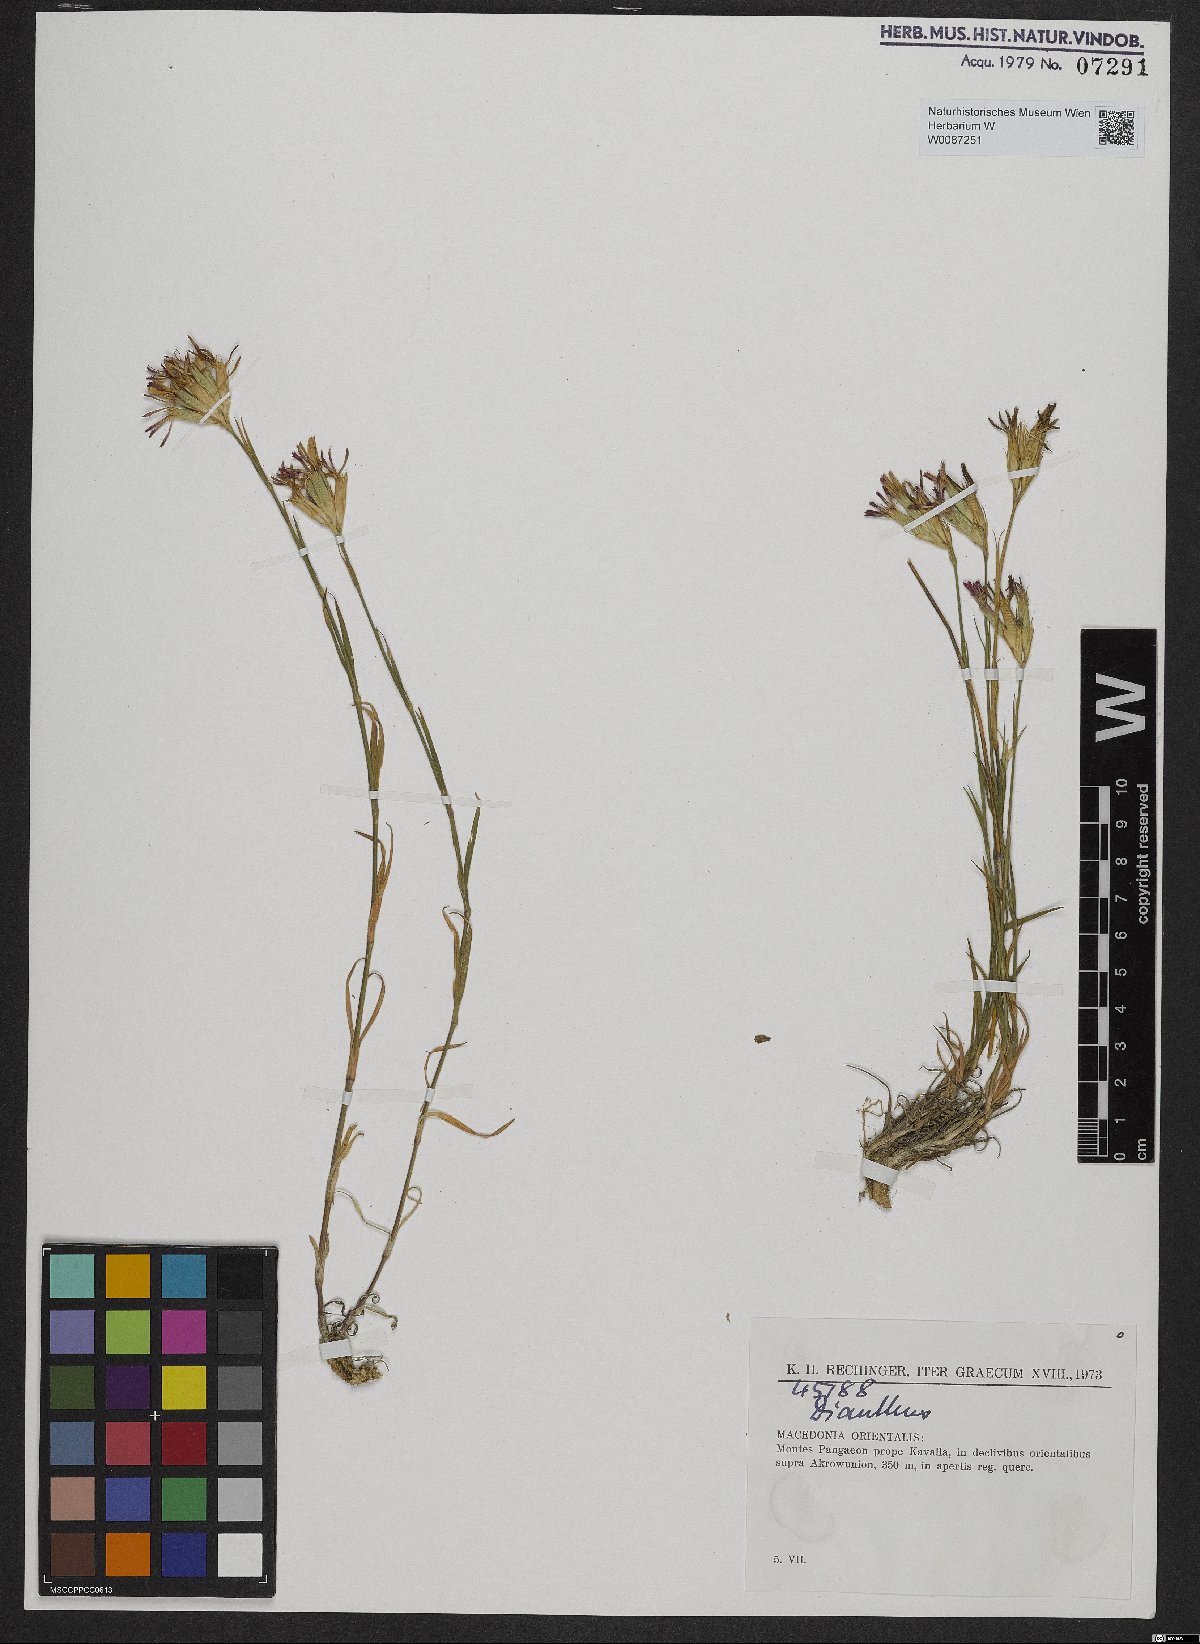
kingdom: Plantae
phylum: Tracheophyta
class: Magnoliopsida
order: Caryophyllales
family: Caryophyllaceae
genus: Dianthus
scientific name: Dianthus
